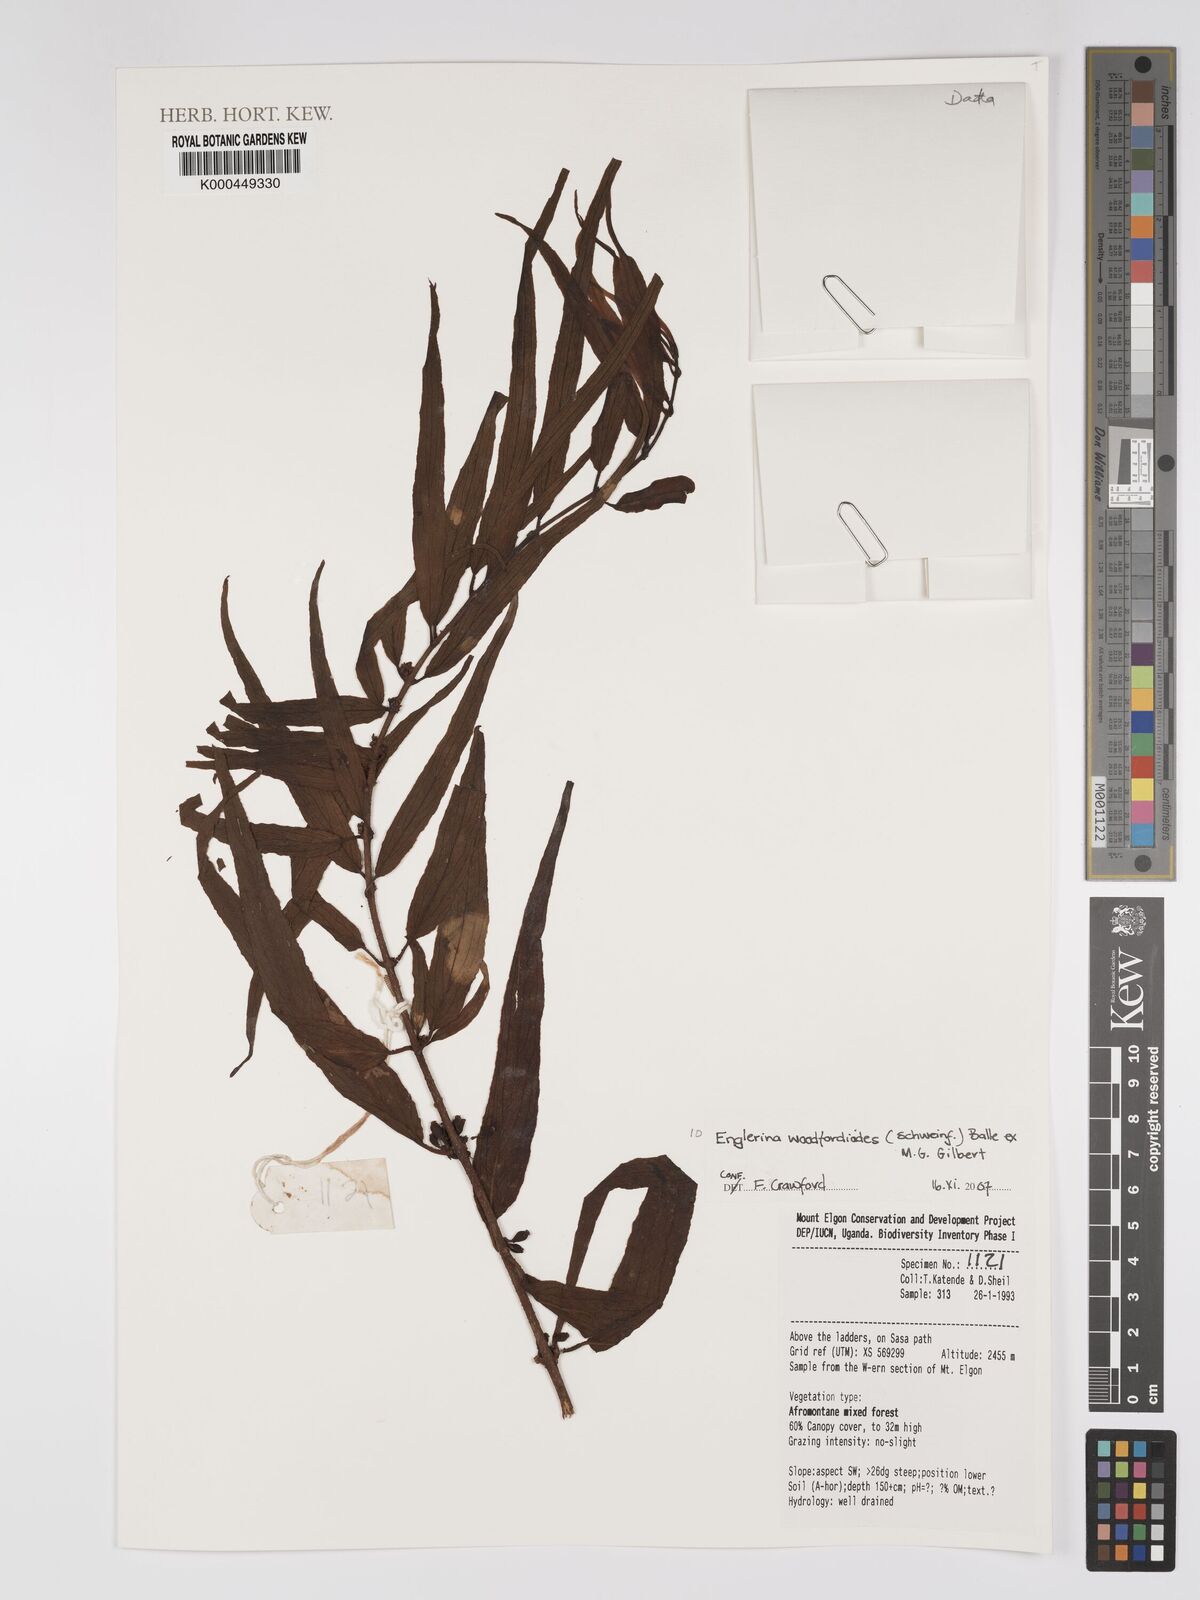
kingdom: Plantae
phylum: Tracheophyta
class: Magnoliopsida
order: Santalales
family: Loranthaceae
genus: Englerina
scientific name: Englerina
